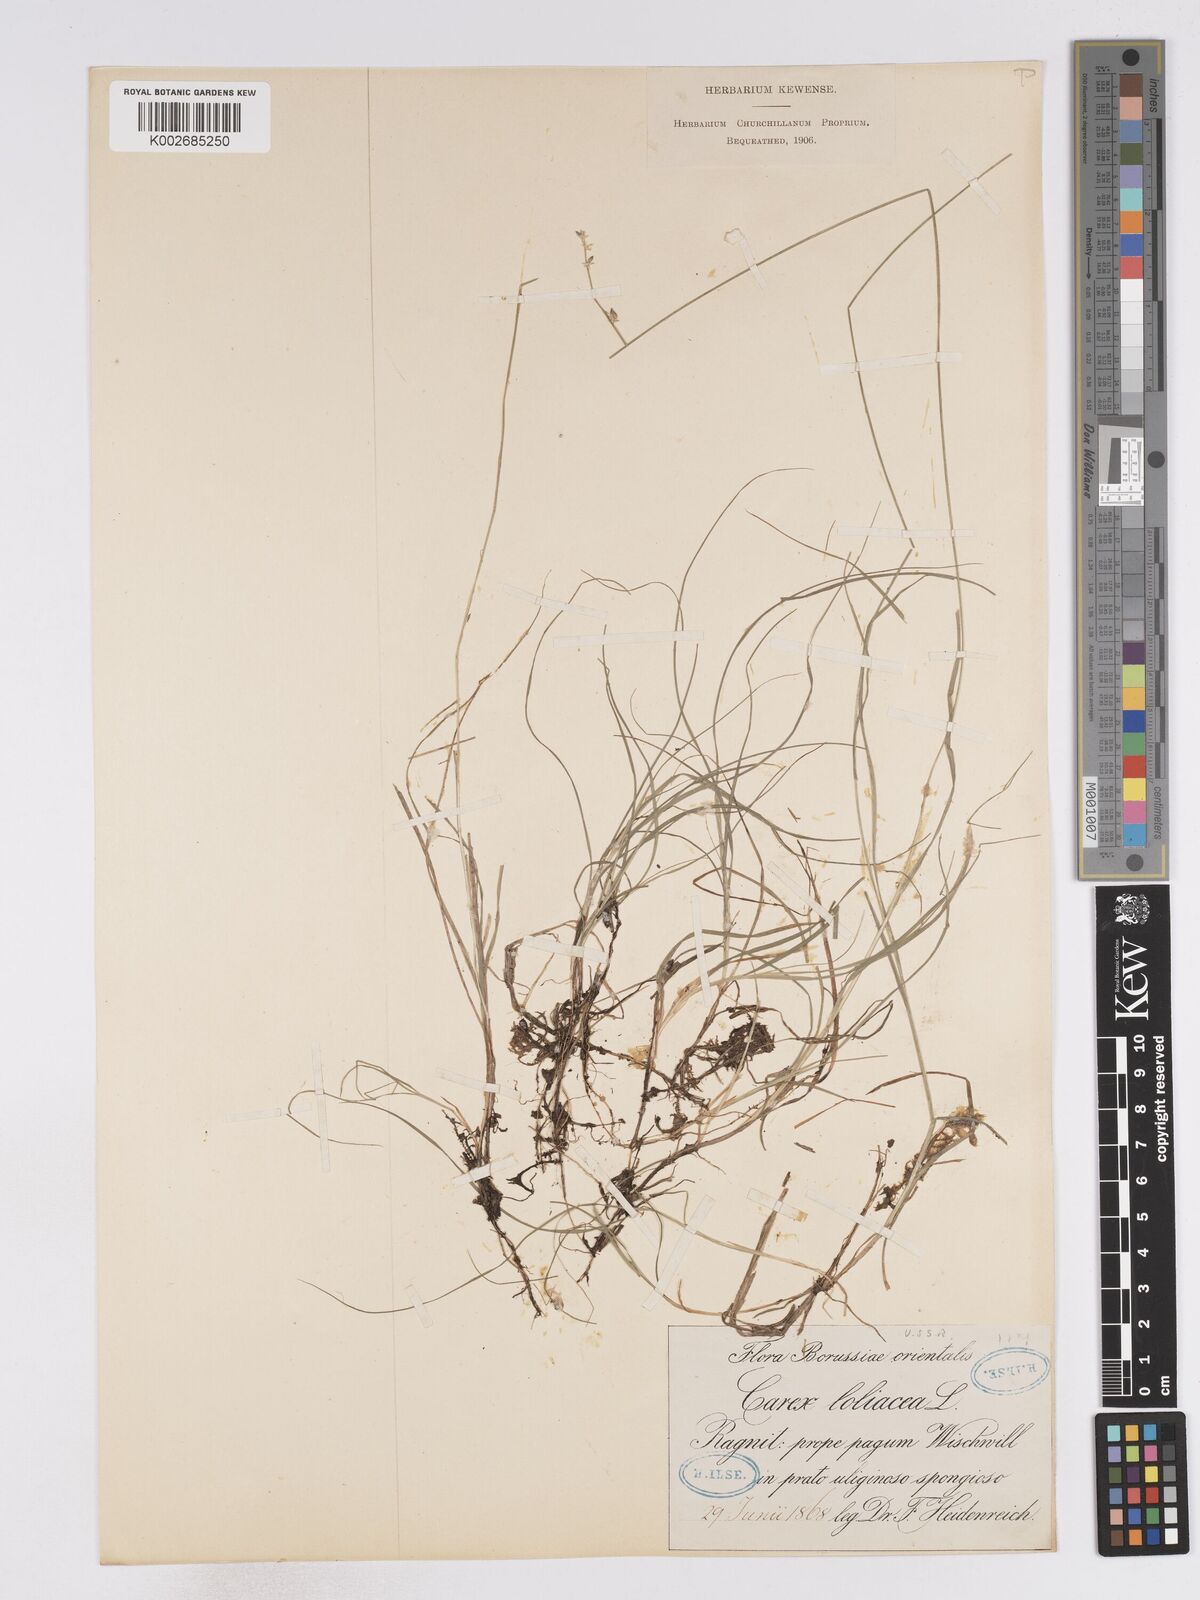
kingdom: Plantae
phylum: Tracheophyta
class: Liliopsida
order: Poales
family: Cyperaceae
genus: Carex
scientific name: Carex loliacea
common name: Ryegrass sedge
